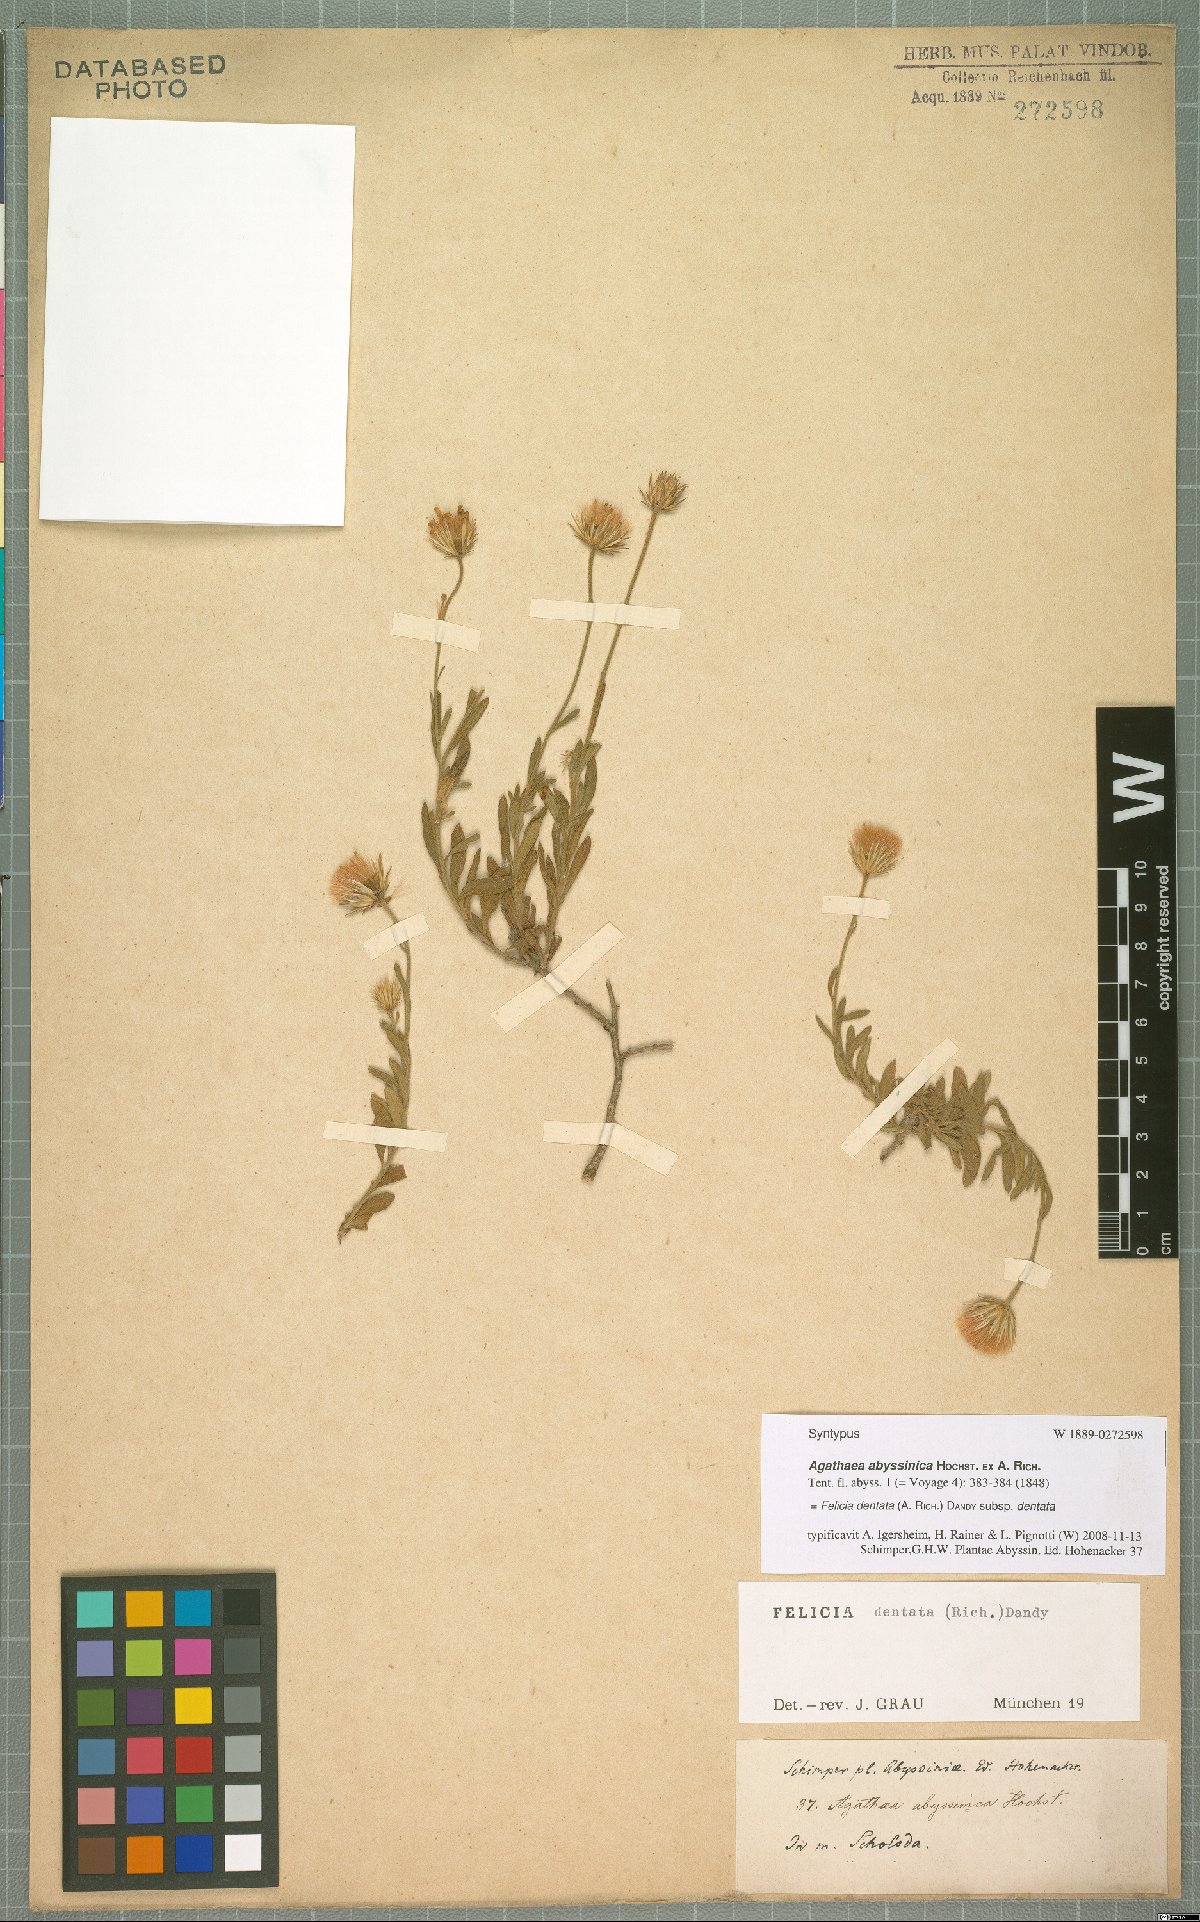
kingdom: Plantae
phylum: Tracheophyta
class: Magnoliopsida
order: Asterales
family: Asteraceae
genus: Felicia
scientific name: Felicia dentata
